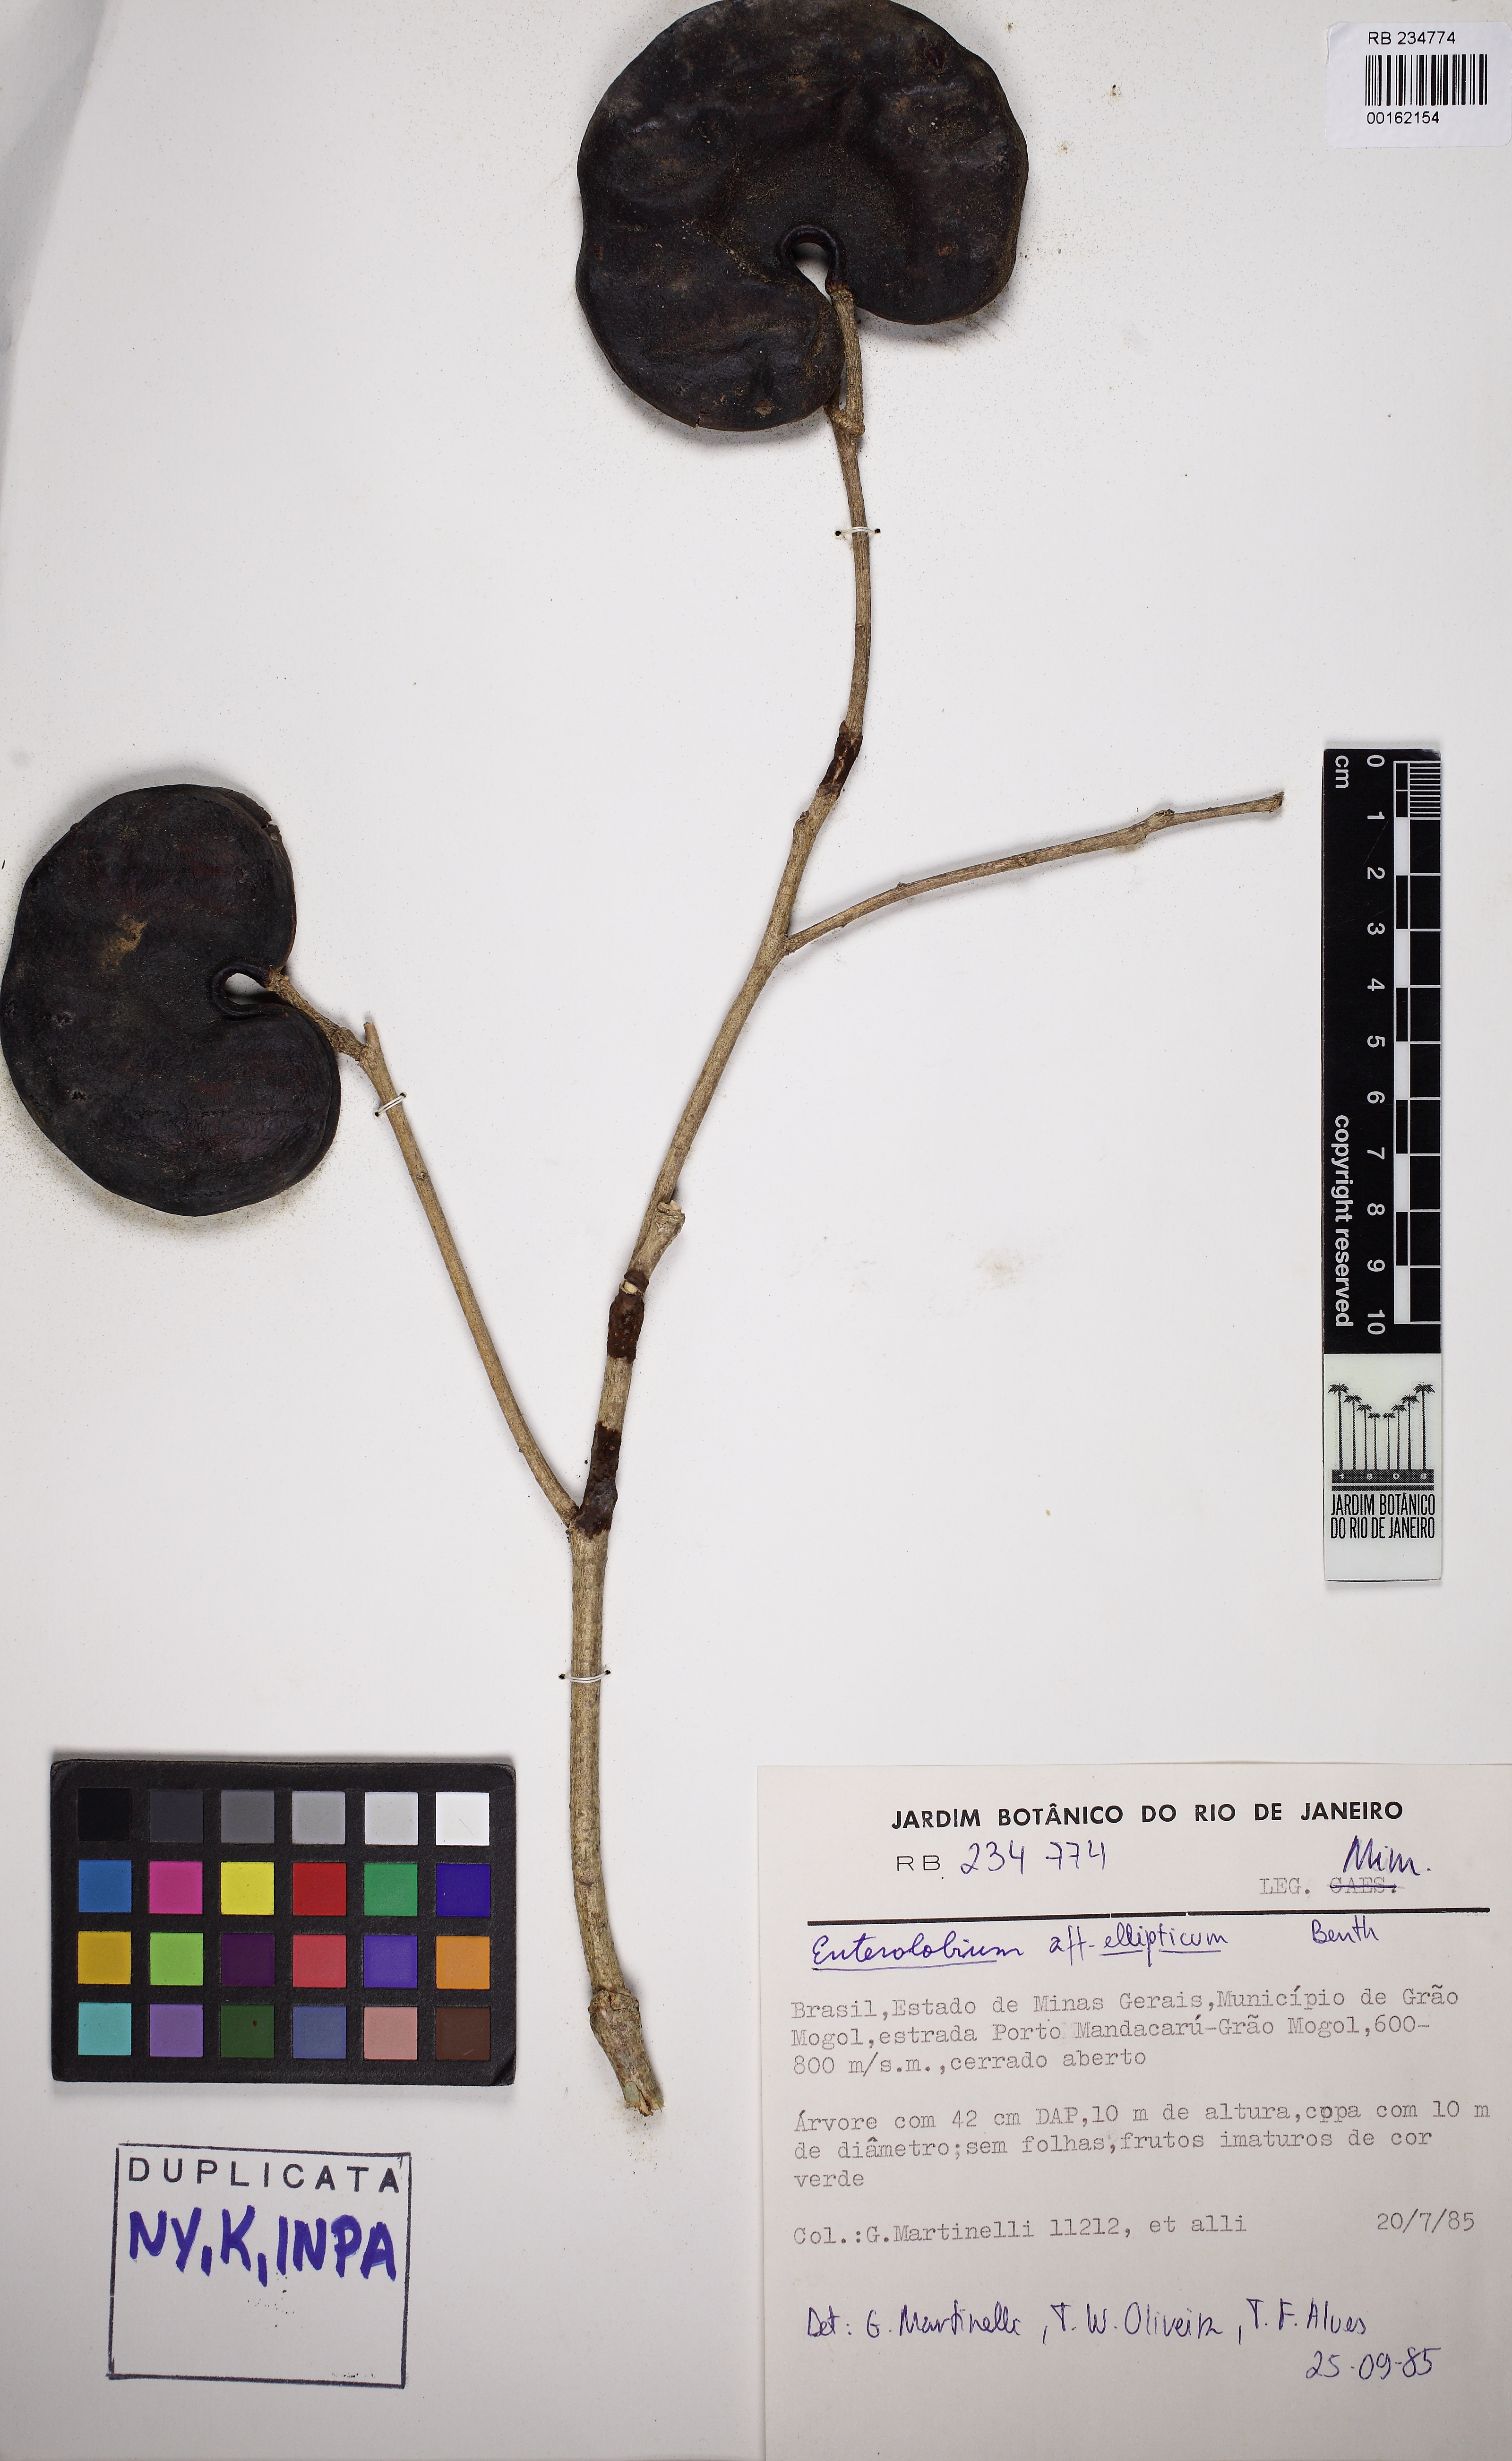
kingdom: Plantae
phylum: Tracheophyta
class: Magnoliopsida
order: Fabales
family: Fabaceae
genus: Enterolobium
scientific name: Enterolobium gummiferum
